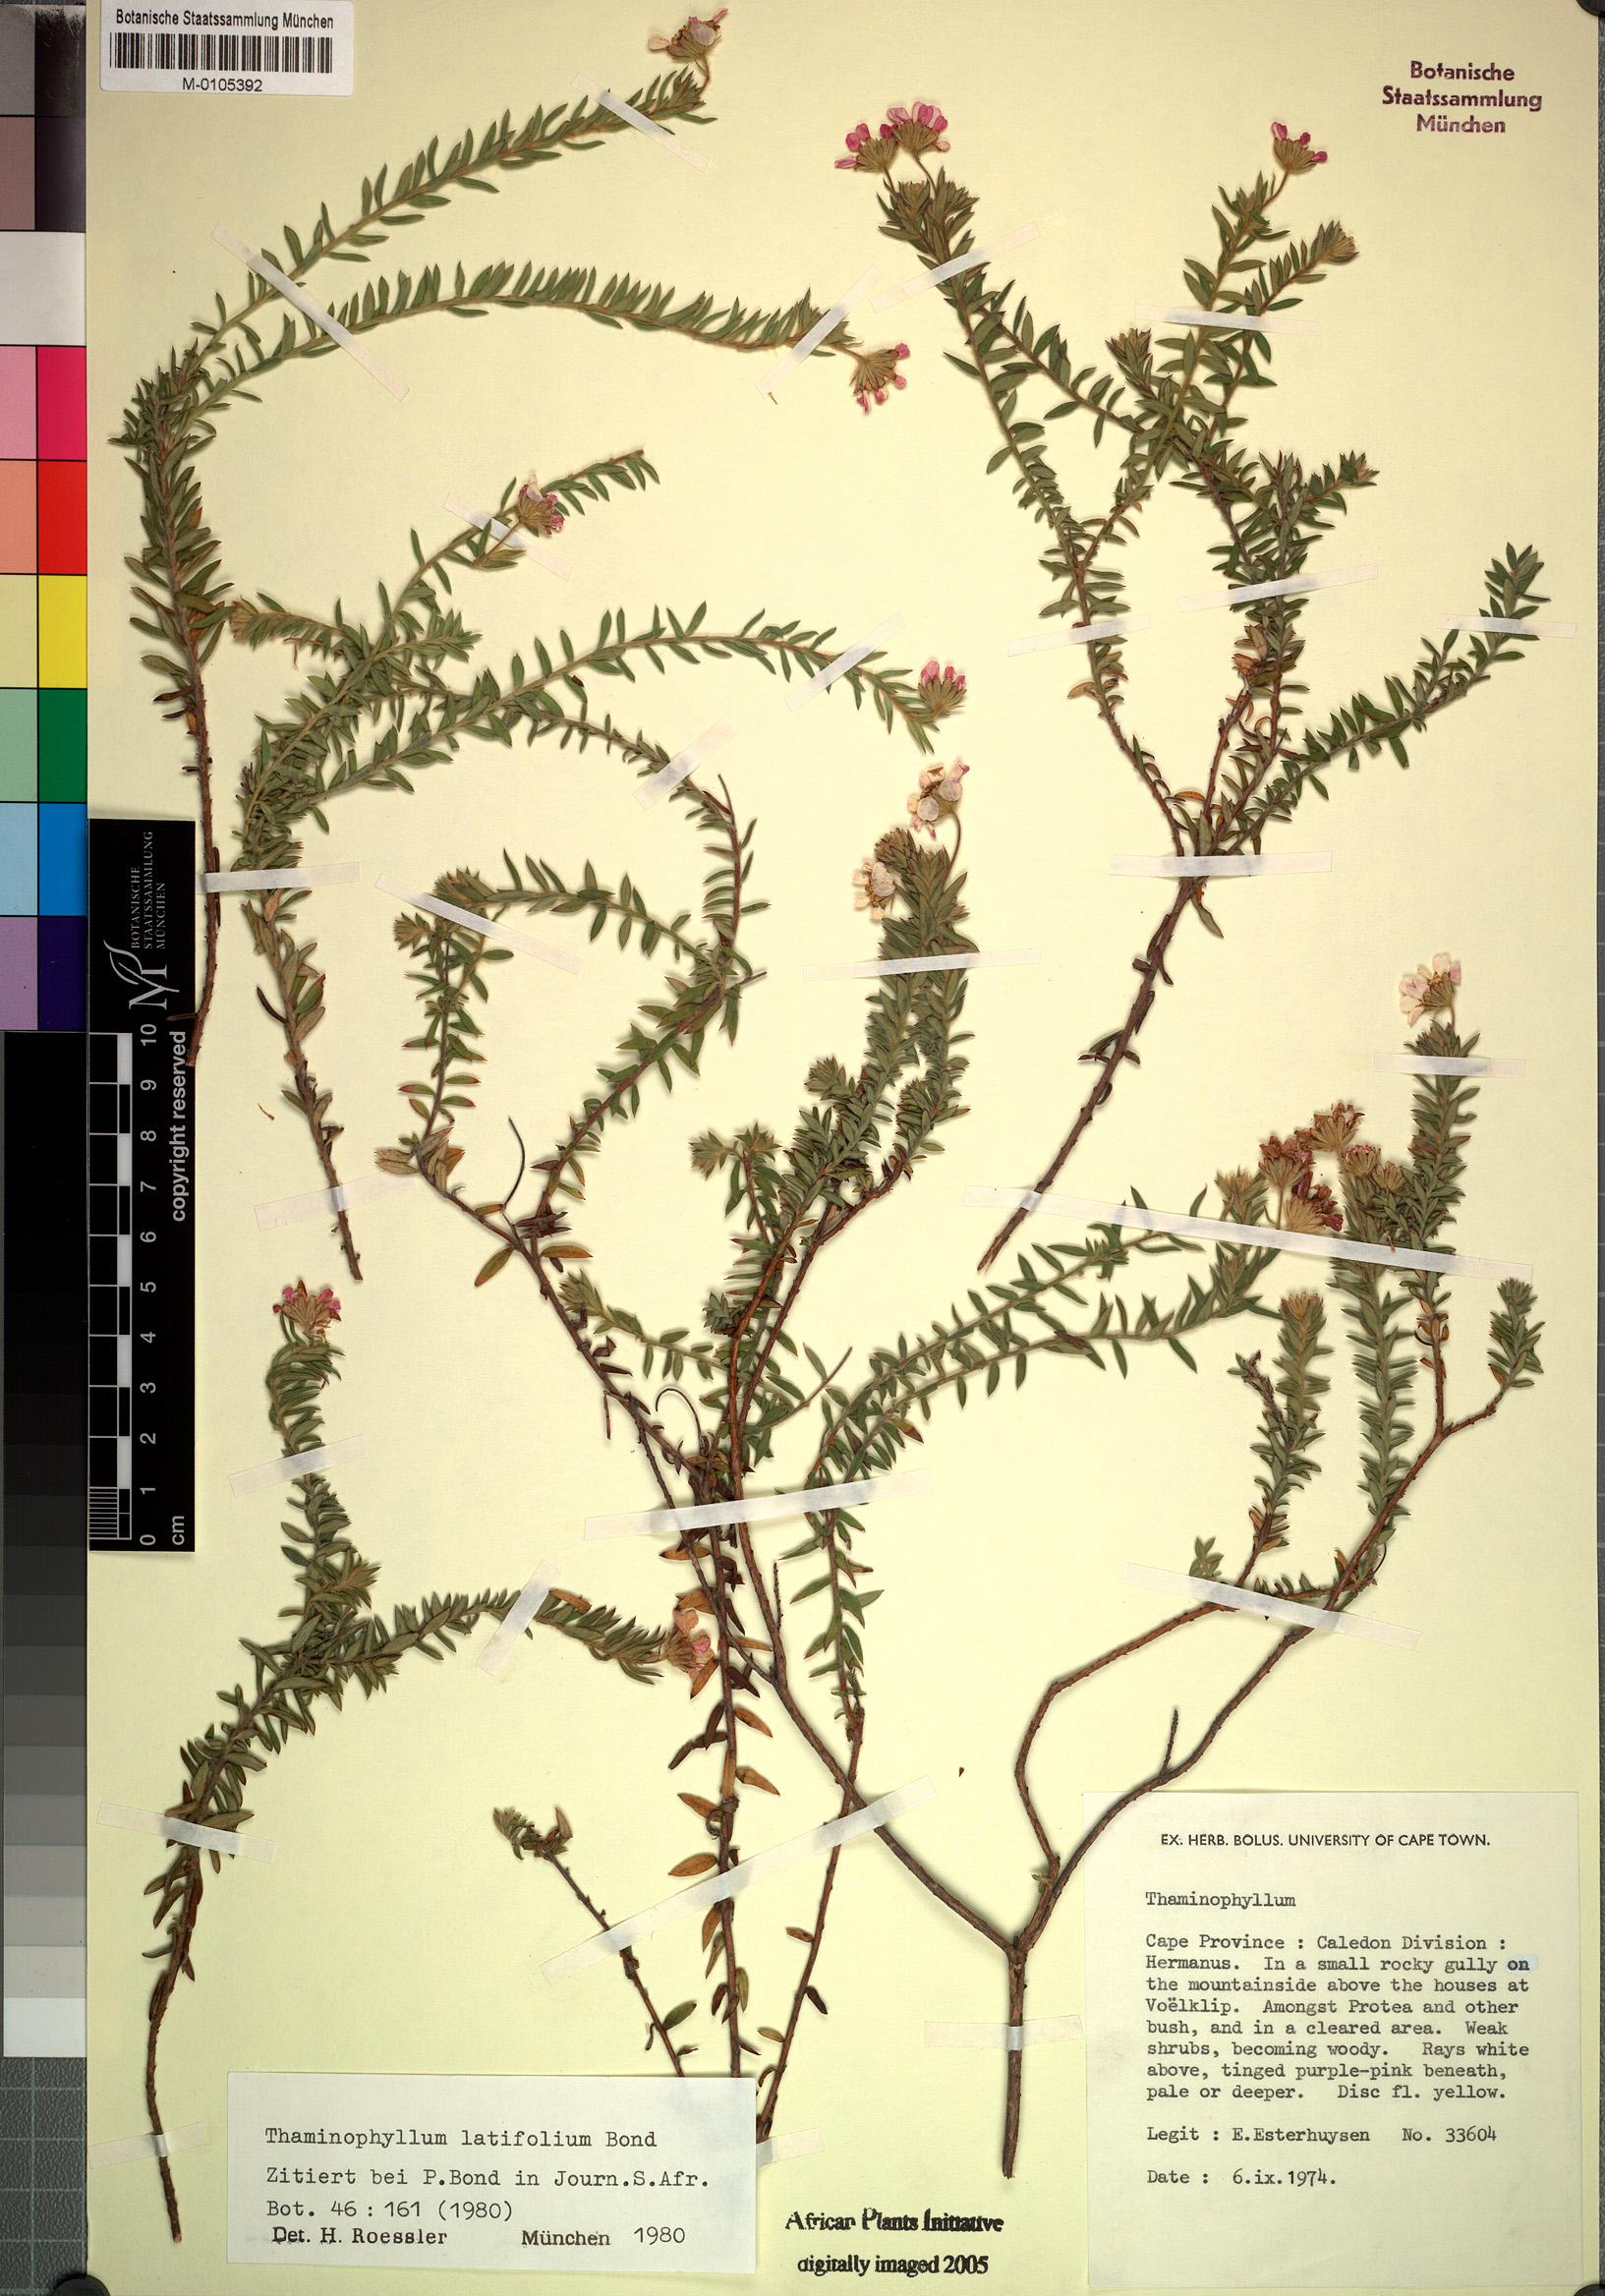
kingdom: Plantae
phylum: Tracheophyta
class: Magnoliopsida
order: Asterales
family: Asteraceae
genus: Thaminophyllum
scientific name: Thaminophyllum latifolium
